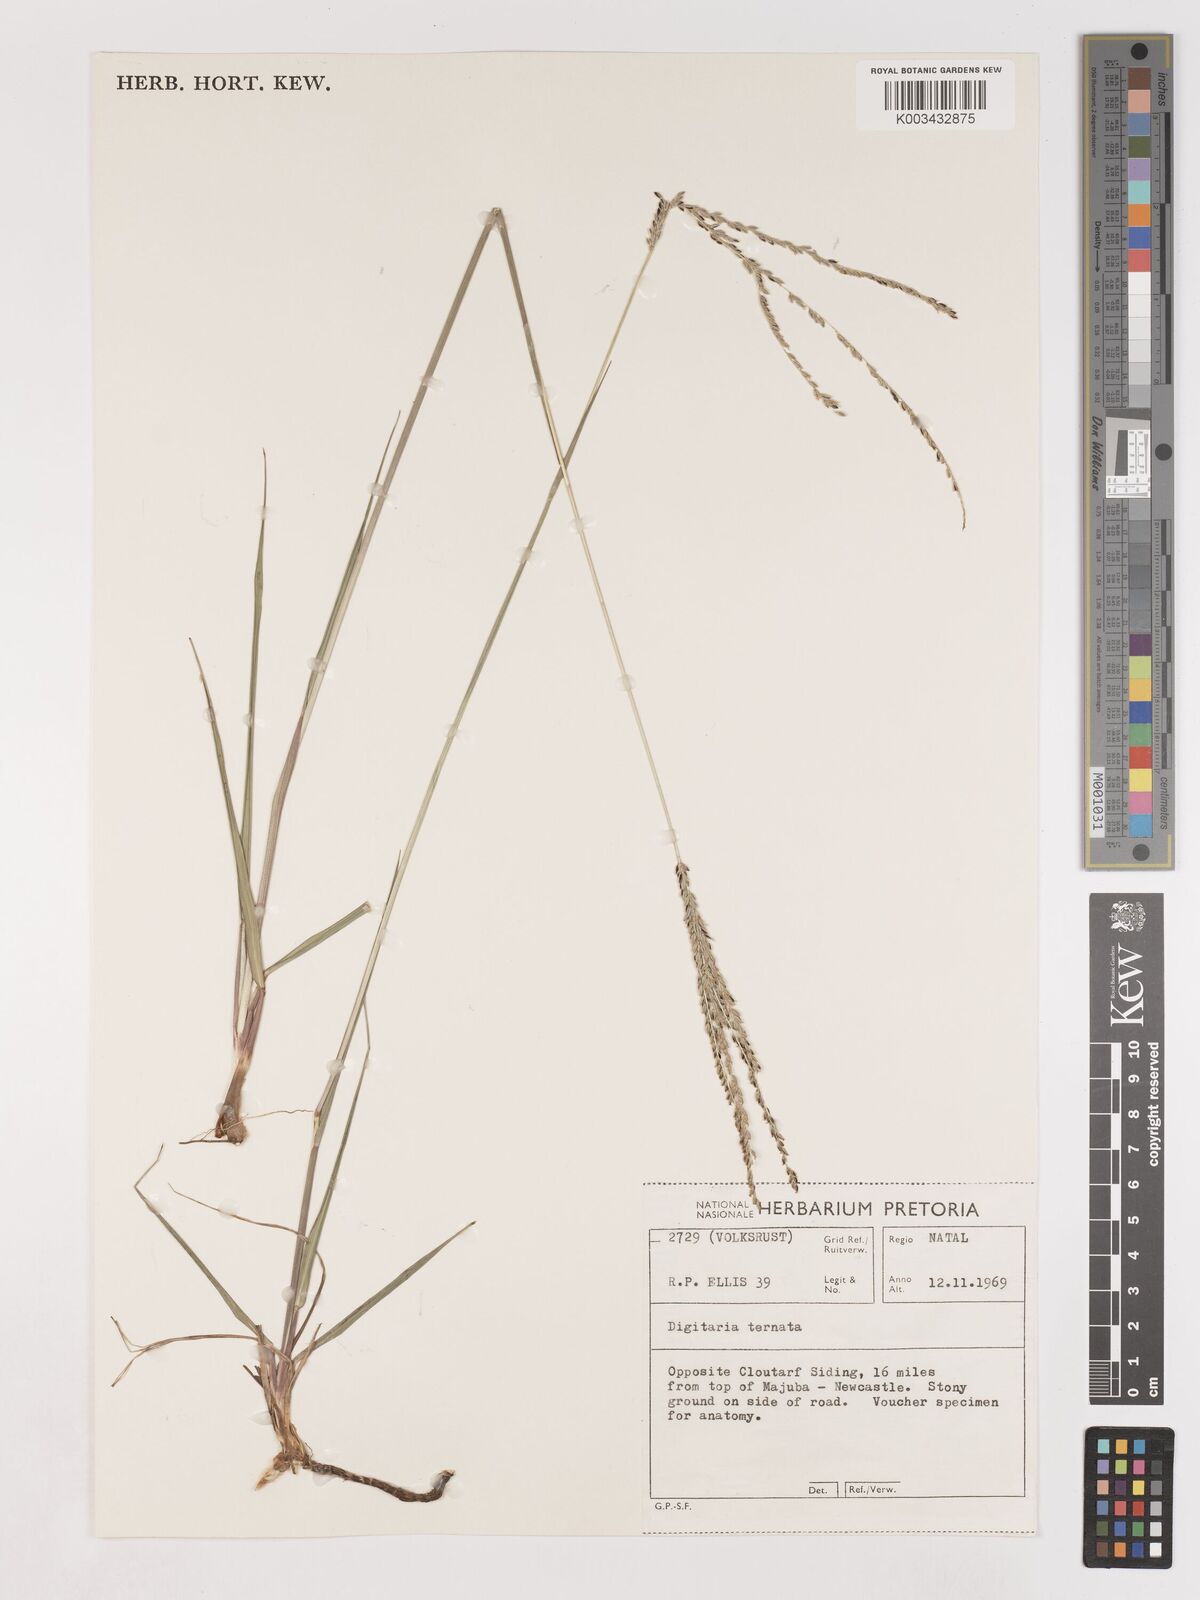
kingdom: Plantae
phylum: Tracheophyta
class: Liliopsida
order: Poales
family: Poaceae
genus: Digitaria
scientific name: Digitaria ternata
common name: Blackseed crabgrass
